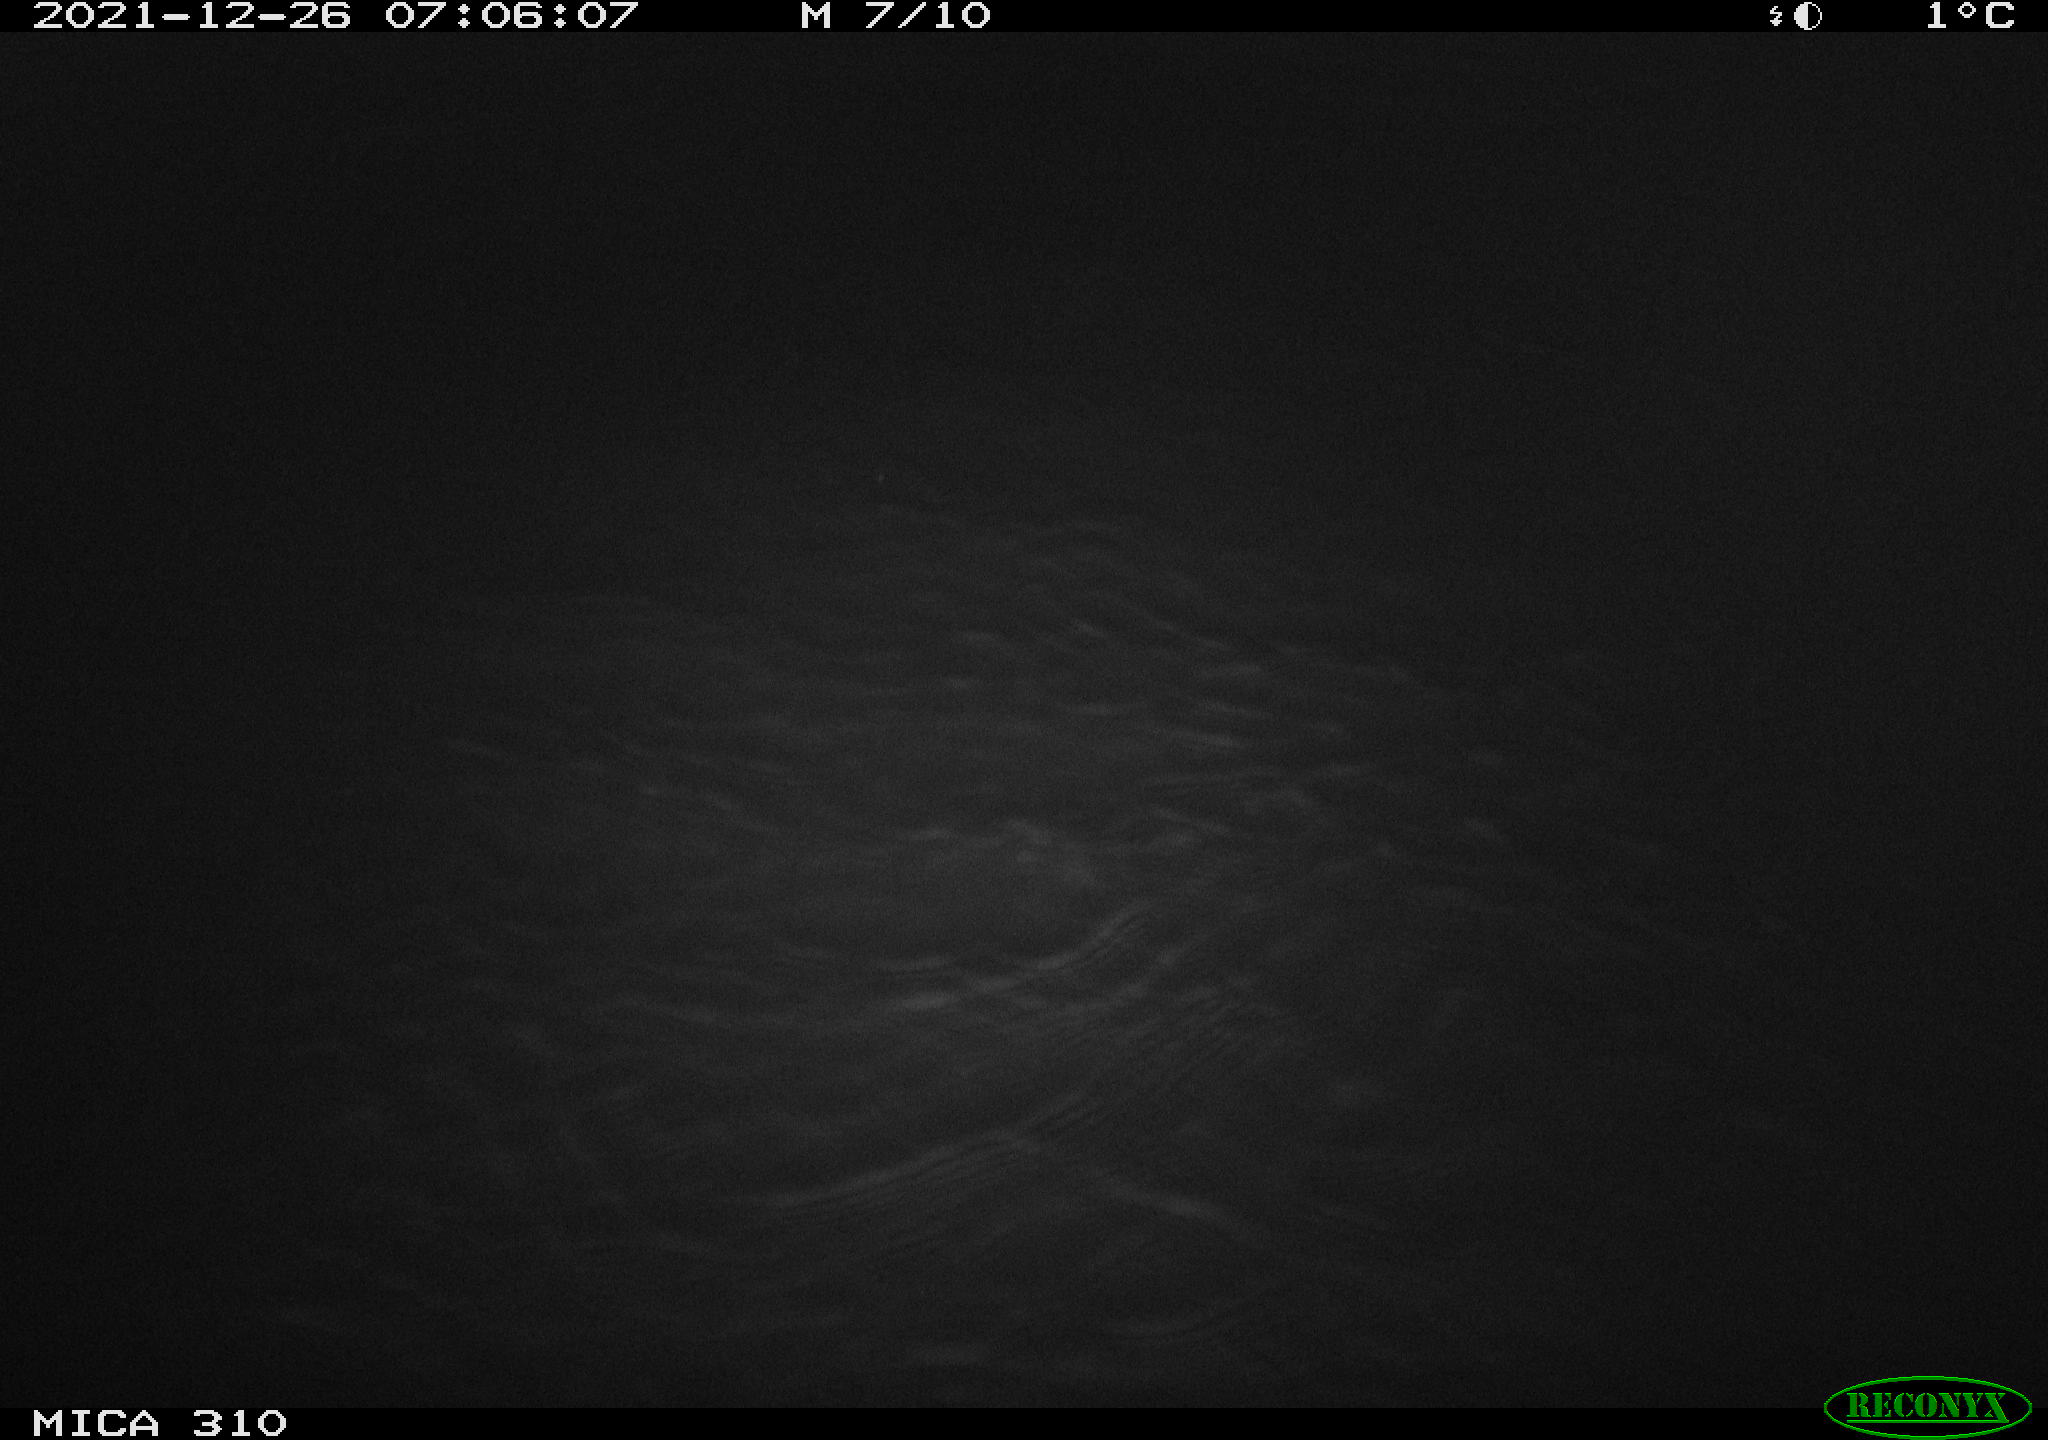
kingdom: Animalia
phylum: Chordata
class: Mammalia
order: Rodentia
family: Muridae
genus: Rattus
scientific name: Rattus norvegicus
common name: Brown rat
